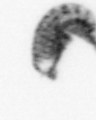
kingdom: Animalia
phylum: Arthropoda
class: Copepoda
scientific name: Copepoda
